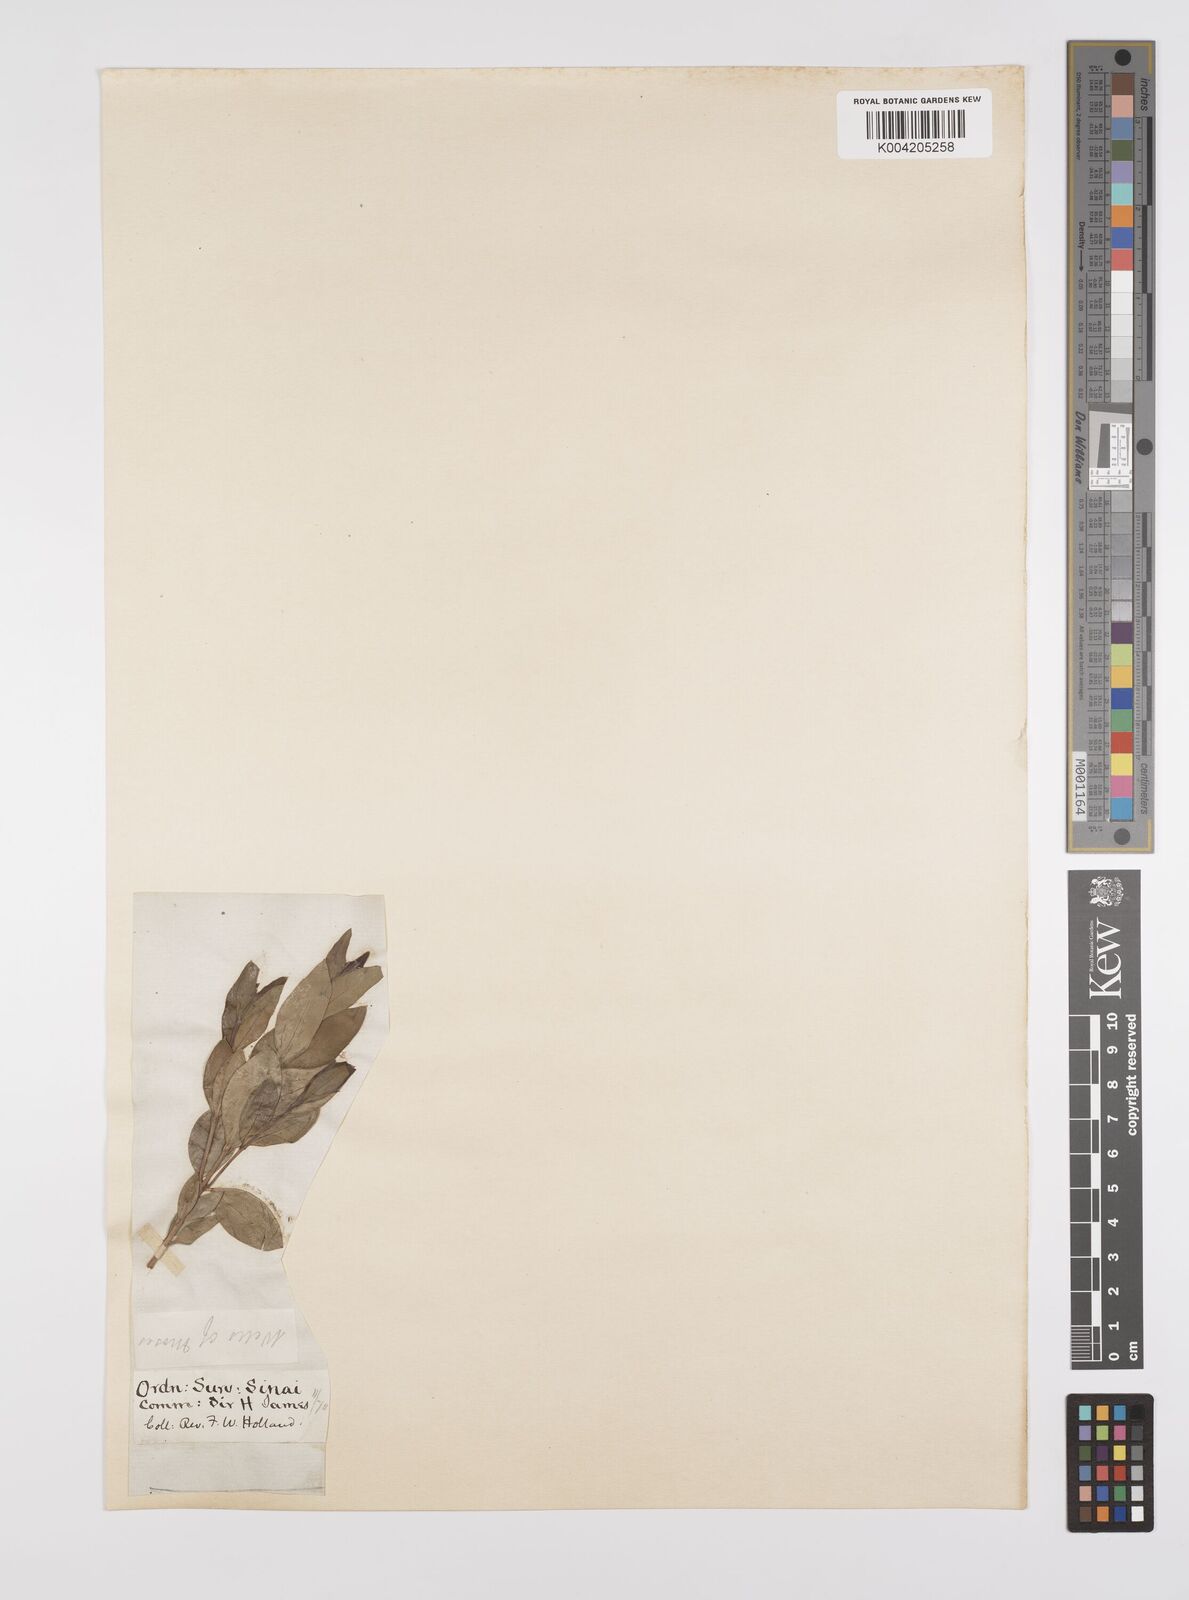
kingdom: Plantae
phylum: Tracheophyta
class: Magnoliopsida
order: Myrtales
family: Myrtaceae
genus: Myrtus
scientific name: Myrtus communis
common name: Myrtle
